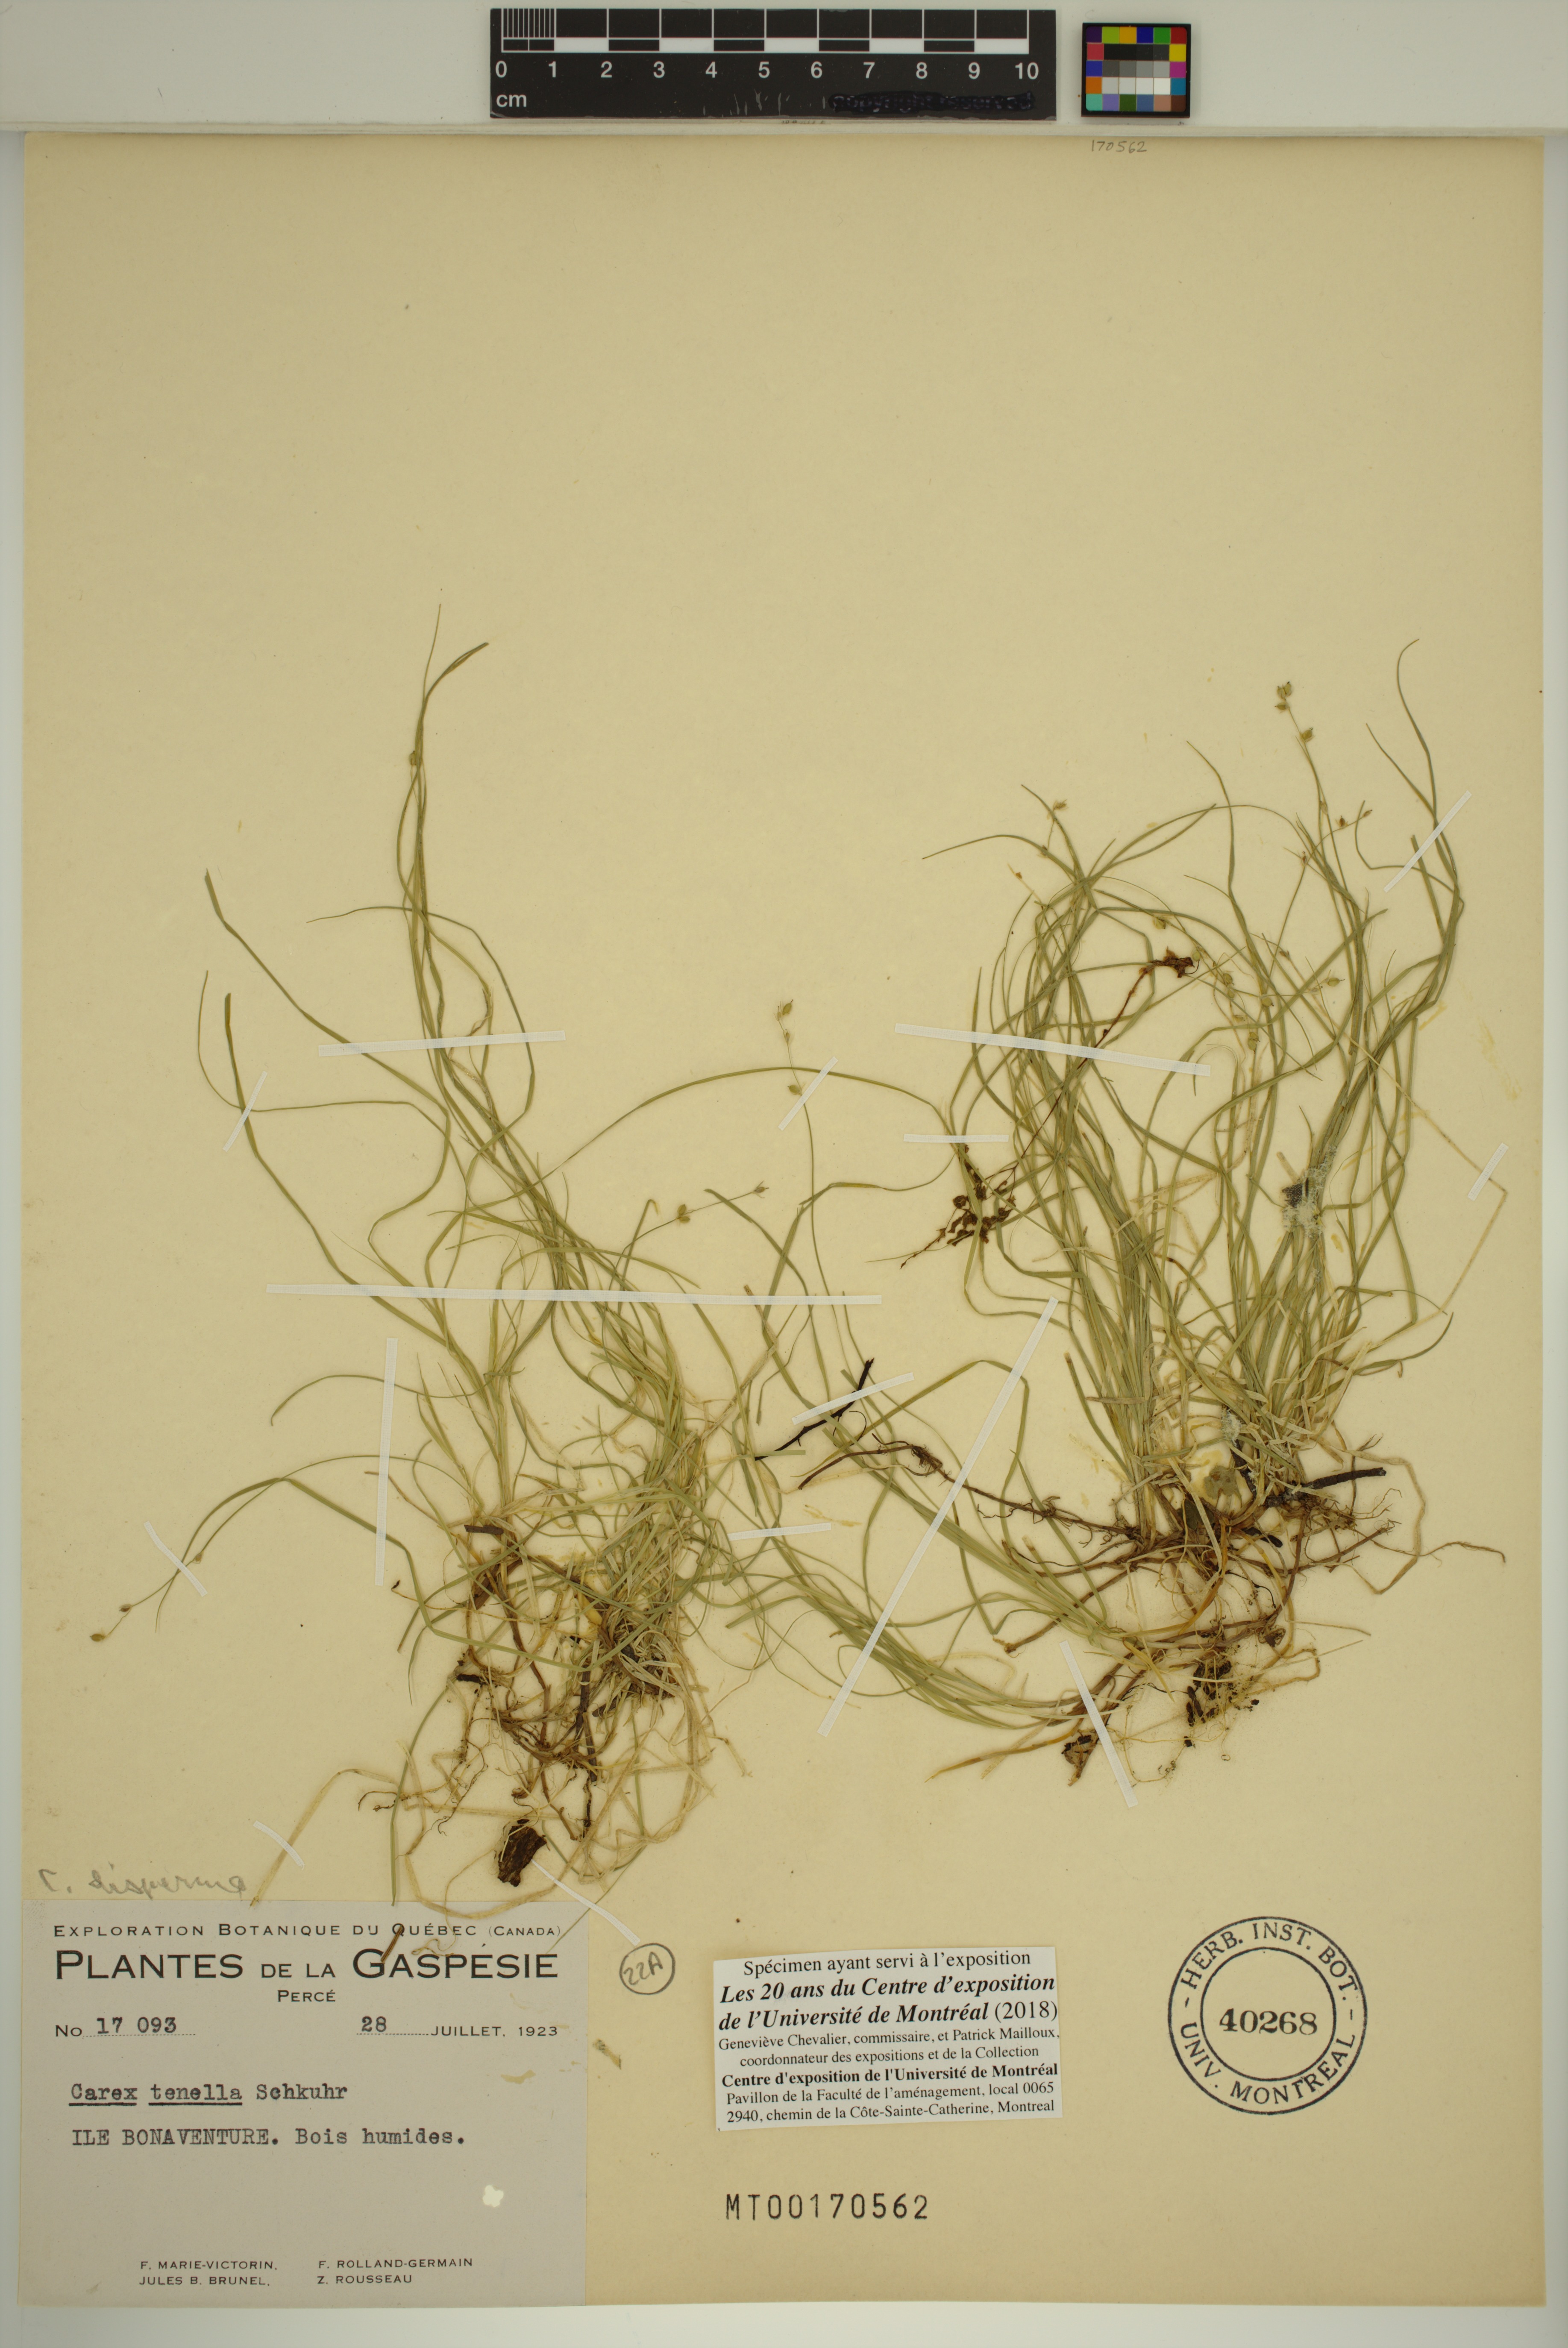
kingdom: Plantae
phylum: Tracheophyta
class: Liliopsida
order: Poales
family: Cyperaceae
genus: Carex
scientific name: Carex disperma
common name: Short-leaved sedge
